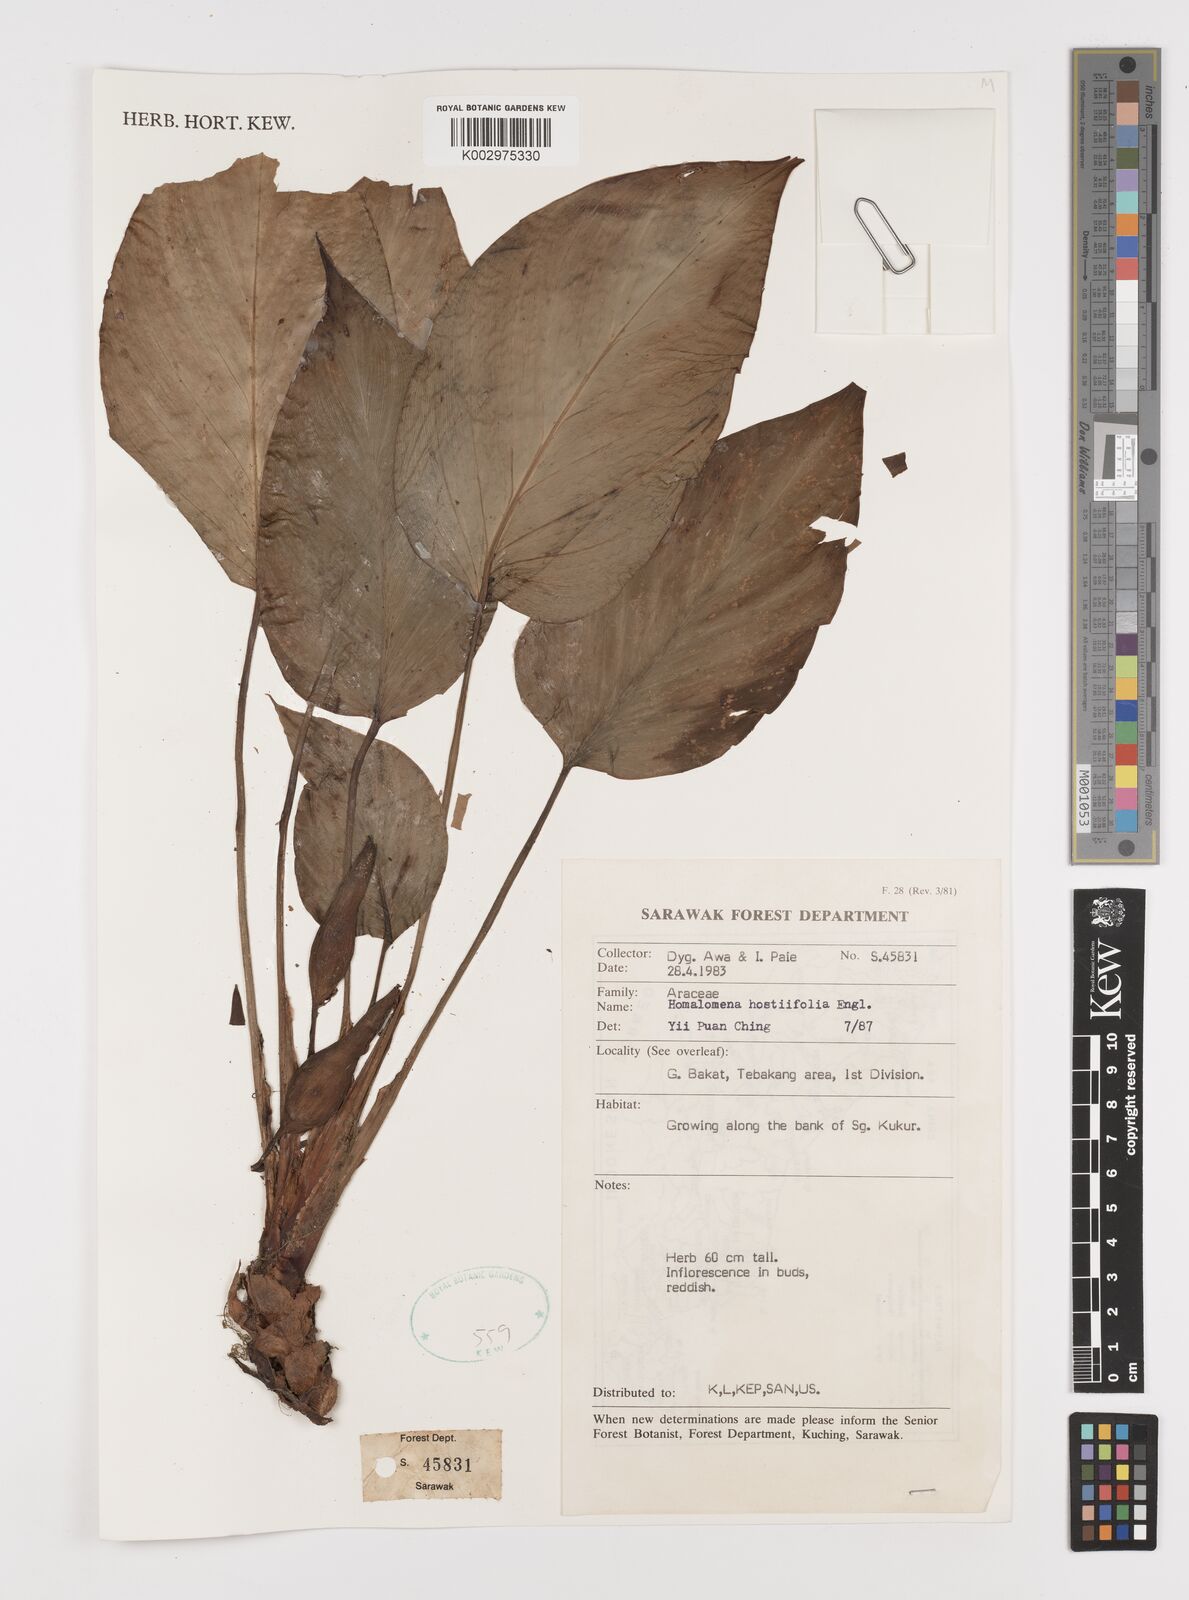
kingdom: Plantae
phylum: Tracheophyta
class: Liliopsida
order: Alismatales
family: Araceae
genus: Homalomena
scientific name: Homalomena ovata
